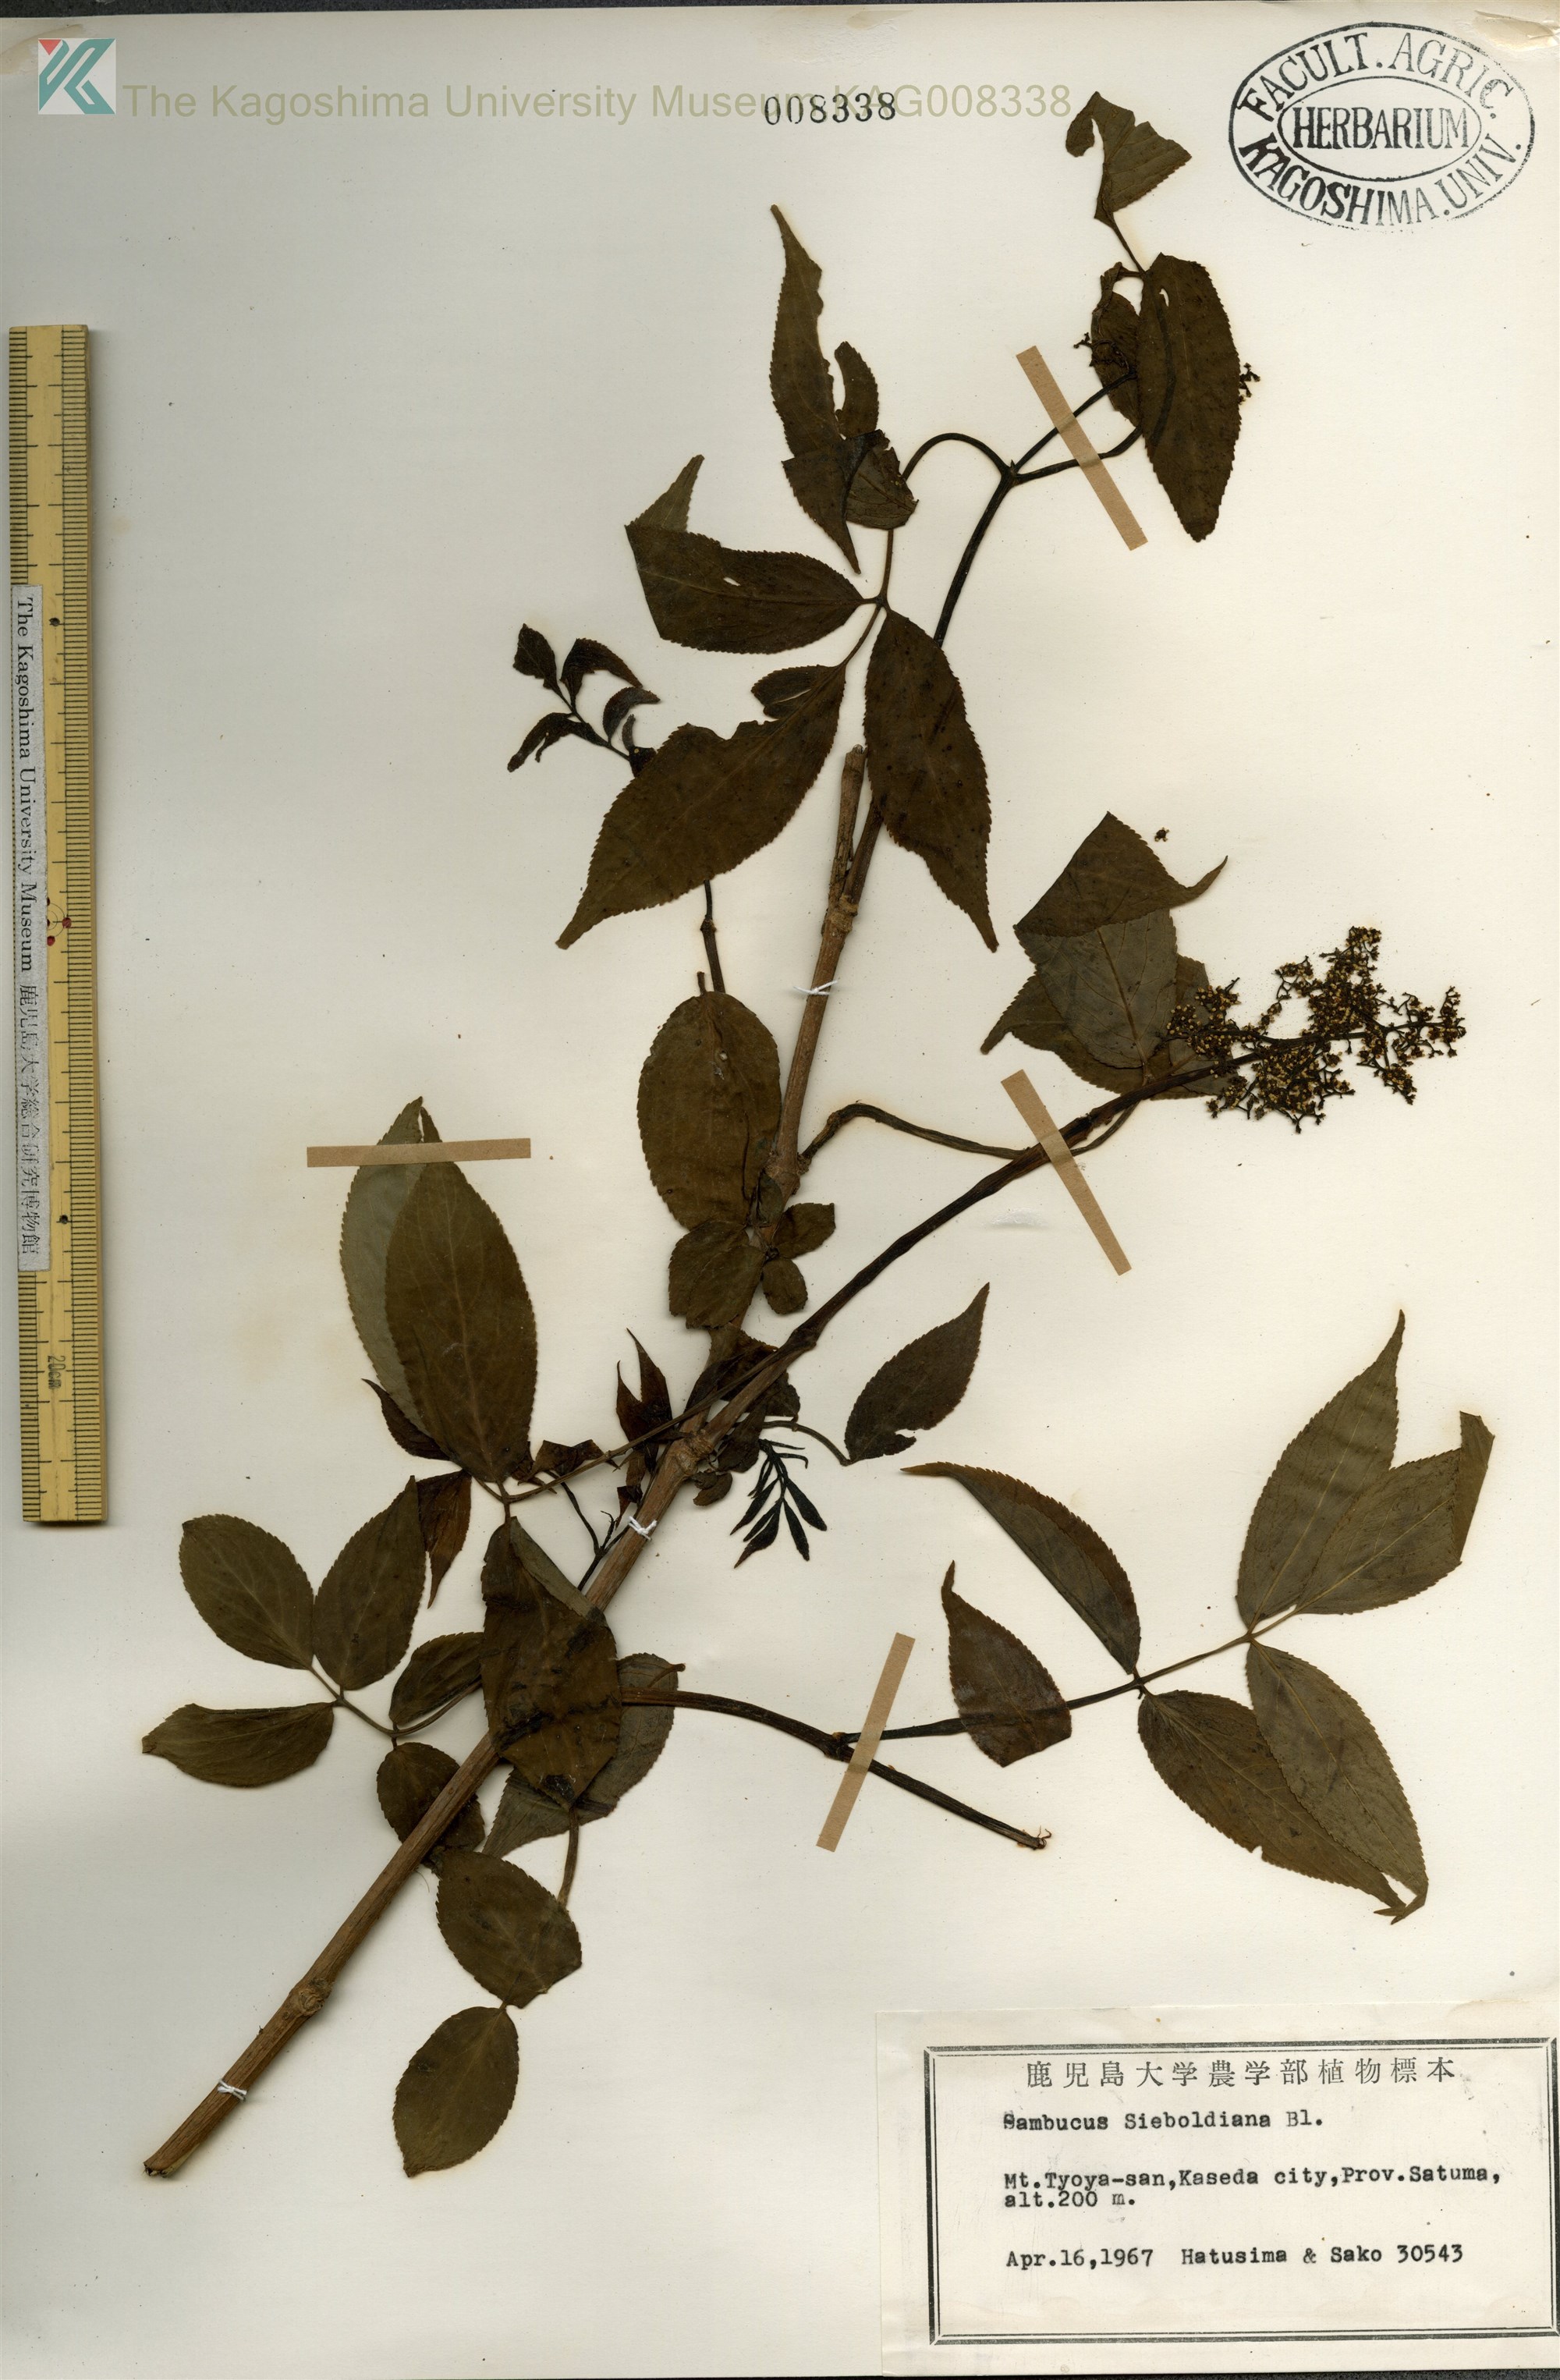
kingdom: Plantae
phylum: Tracheophyta
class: Magnoliopsida
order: Dipsacales
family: Viburnaceae
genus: Sambucus
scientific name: Sambucus sieboldiana
